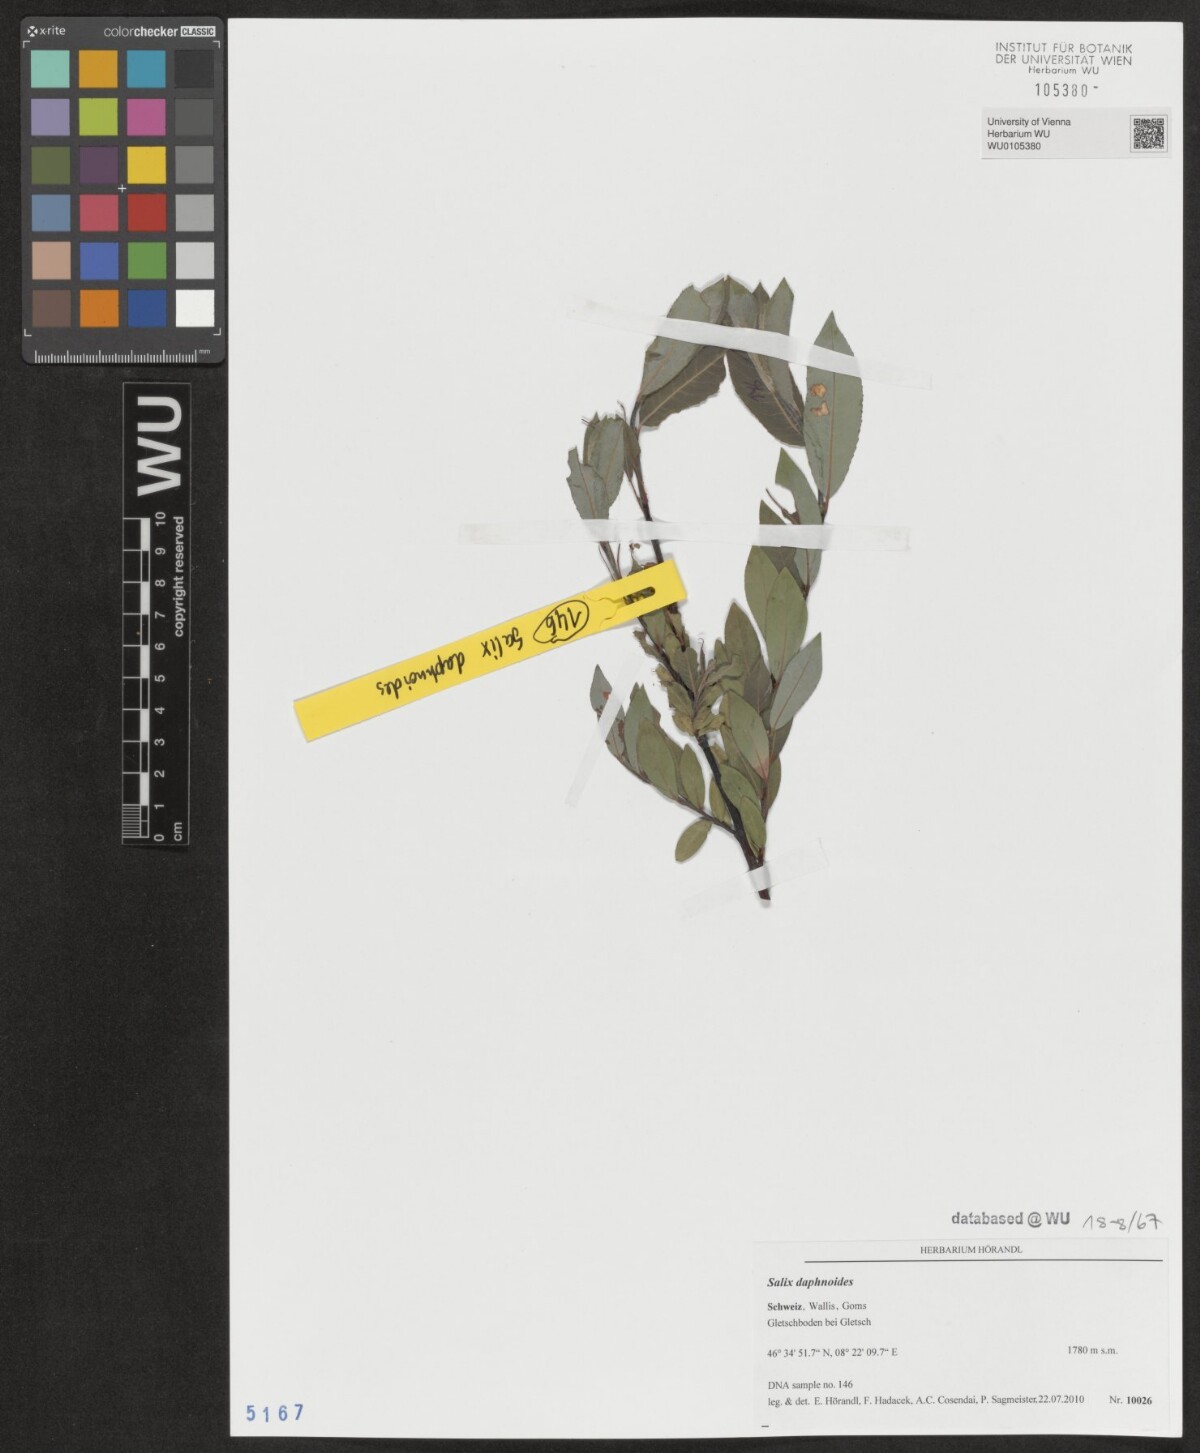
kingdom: Plantae
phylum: Tracheophyta
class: Magnoliopsida
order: Malpighiales
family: Salicaceae
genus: Salix
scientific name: Salix daphnoides
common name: European violet-willow
